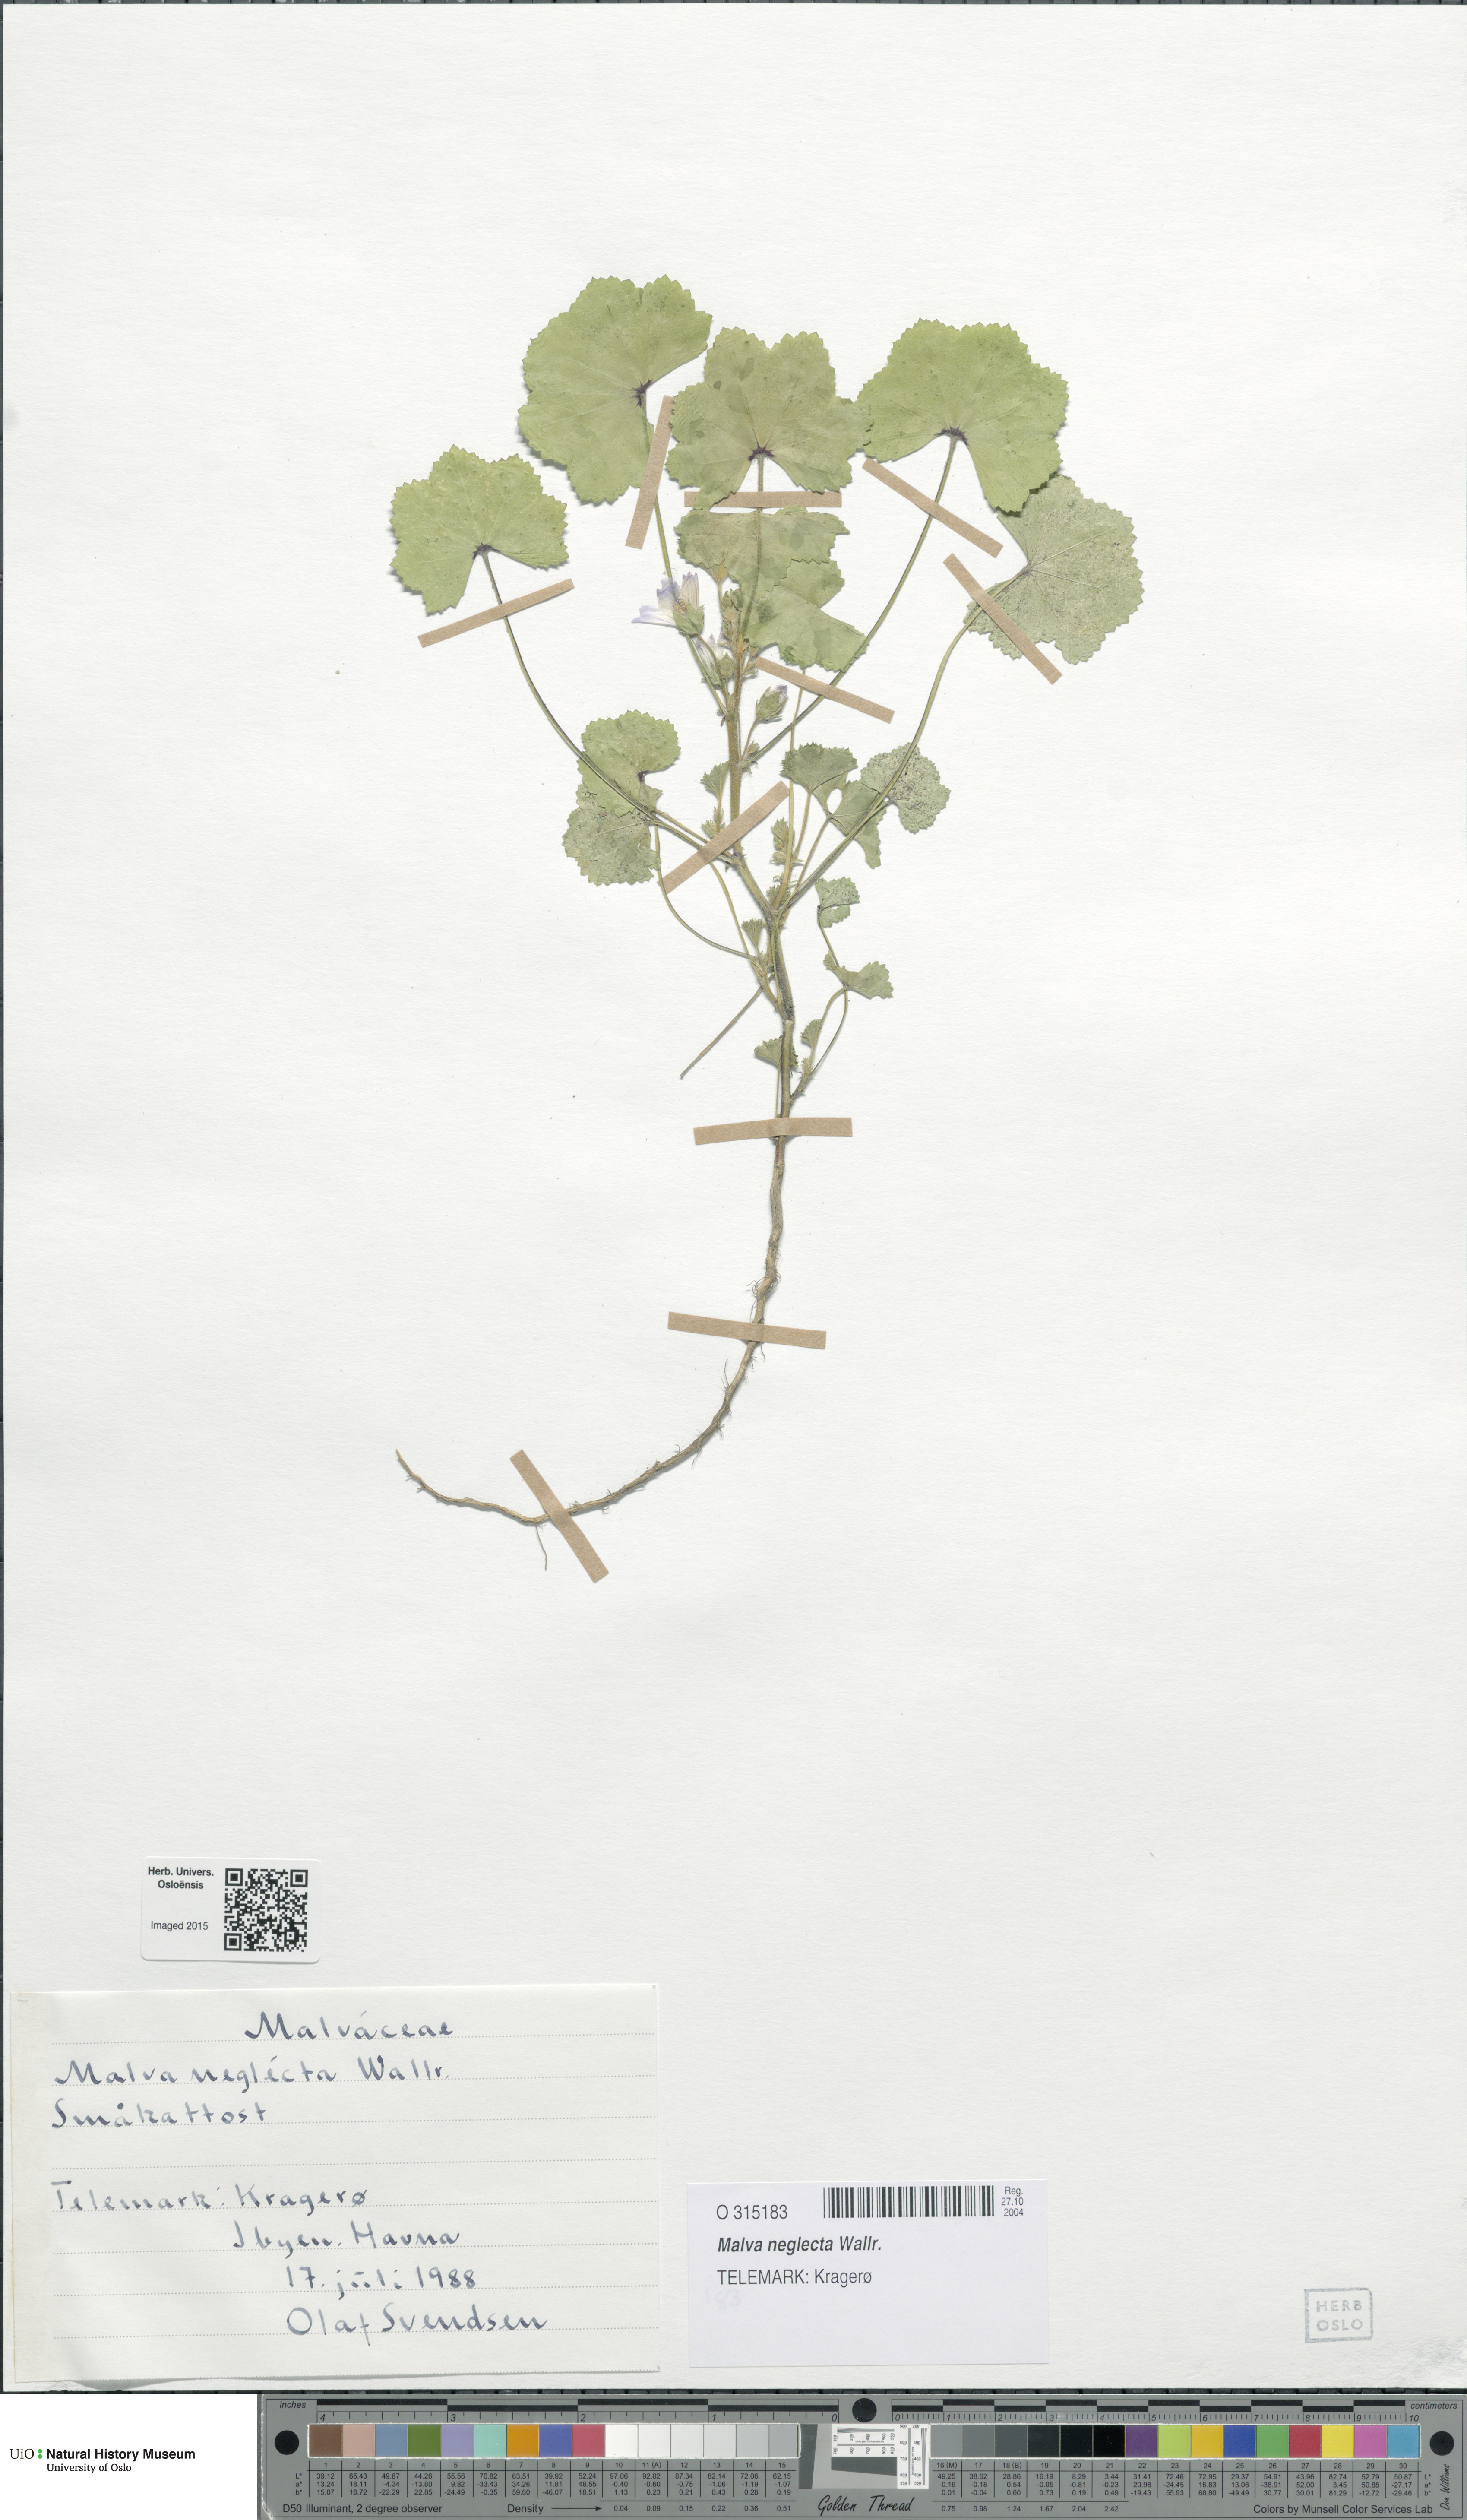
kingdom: Plantae
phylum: Tracheophyta
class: Magnoliopsida
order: Malvales
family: Malvaceae
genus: Malva
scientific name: Malva neglecta
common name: Common mallow
